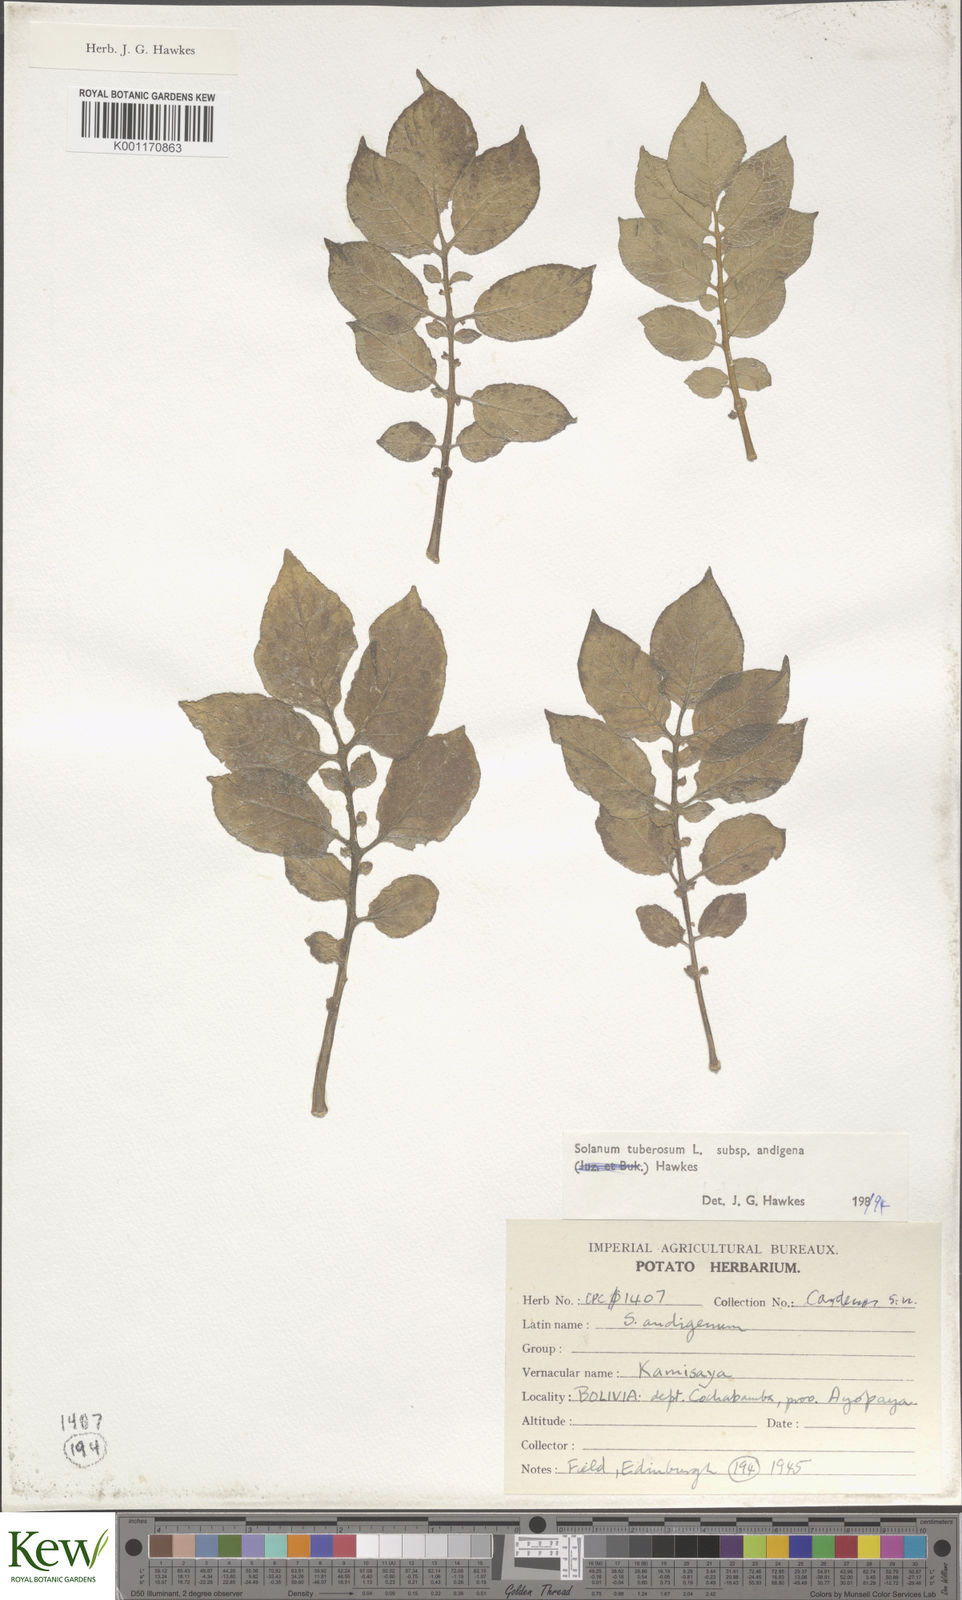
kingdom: Plantae
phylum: Tracheophyta
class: Magnoliopsida
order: Solanales
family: Solanaceae
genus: Solanum
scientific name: Solanum tuberosum
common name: Potato
